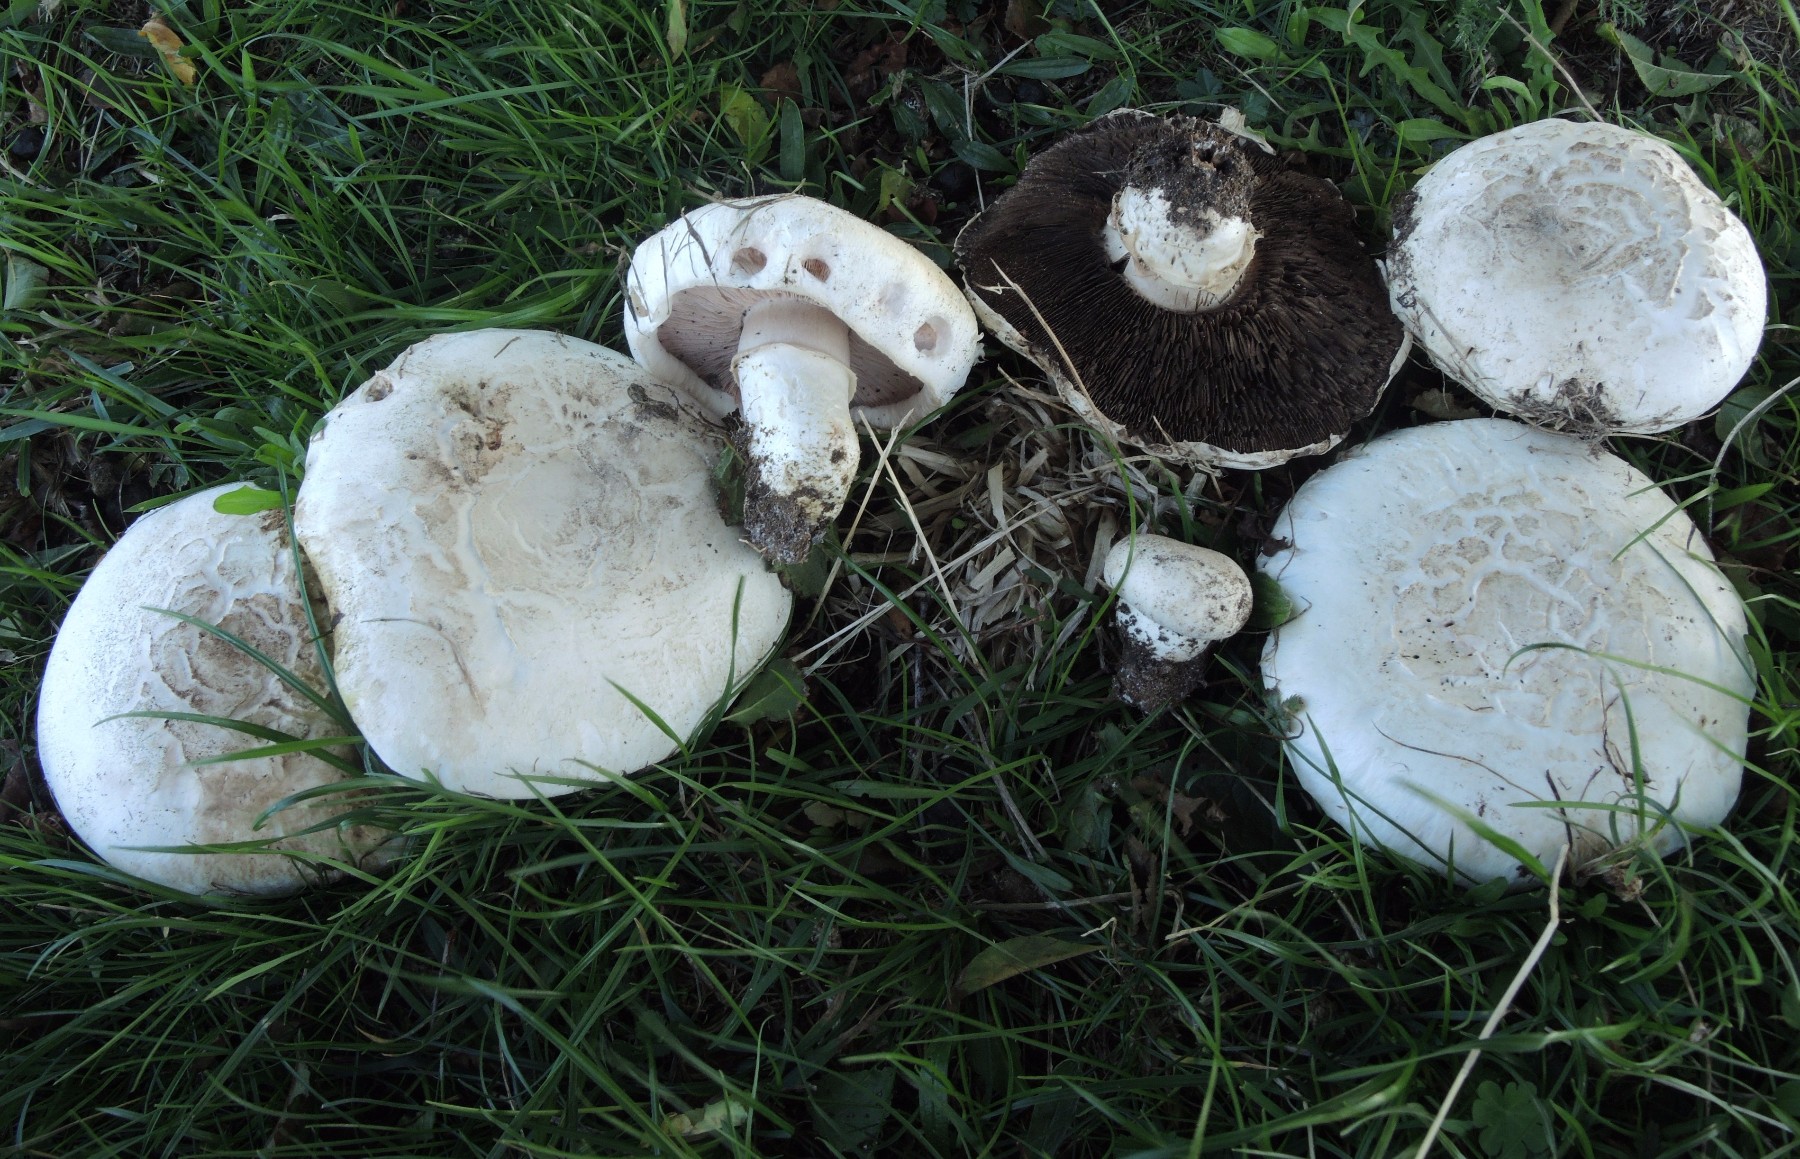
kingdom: Fungi
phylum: Basidiomycota
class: Agaricomycetes
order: Agaricales
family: Agaricaceae
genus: Agaricus
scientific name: Agaricus litoralis
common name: kyst-champignon
